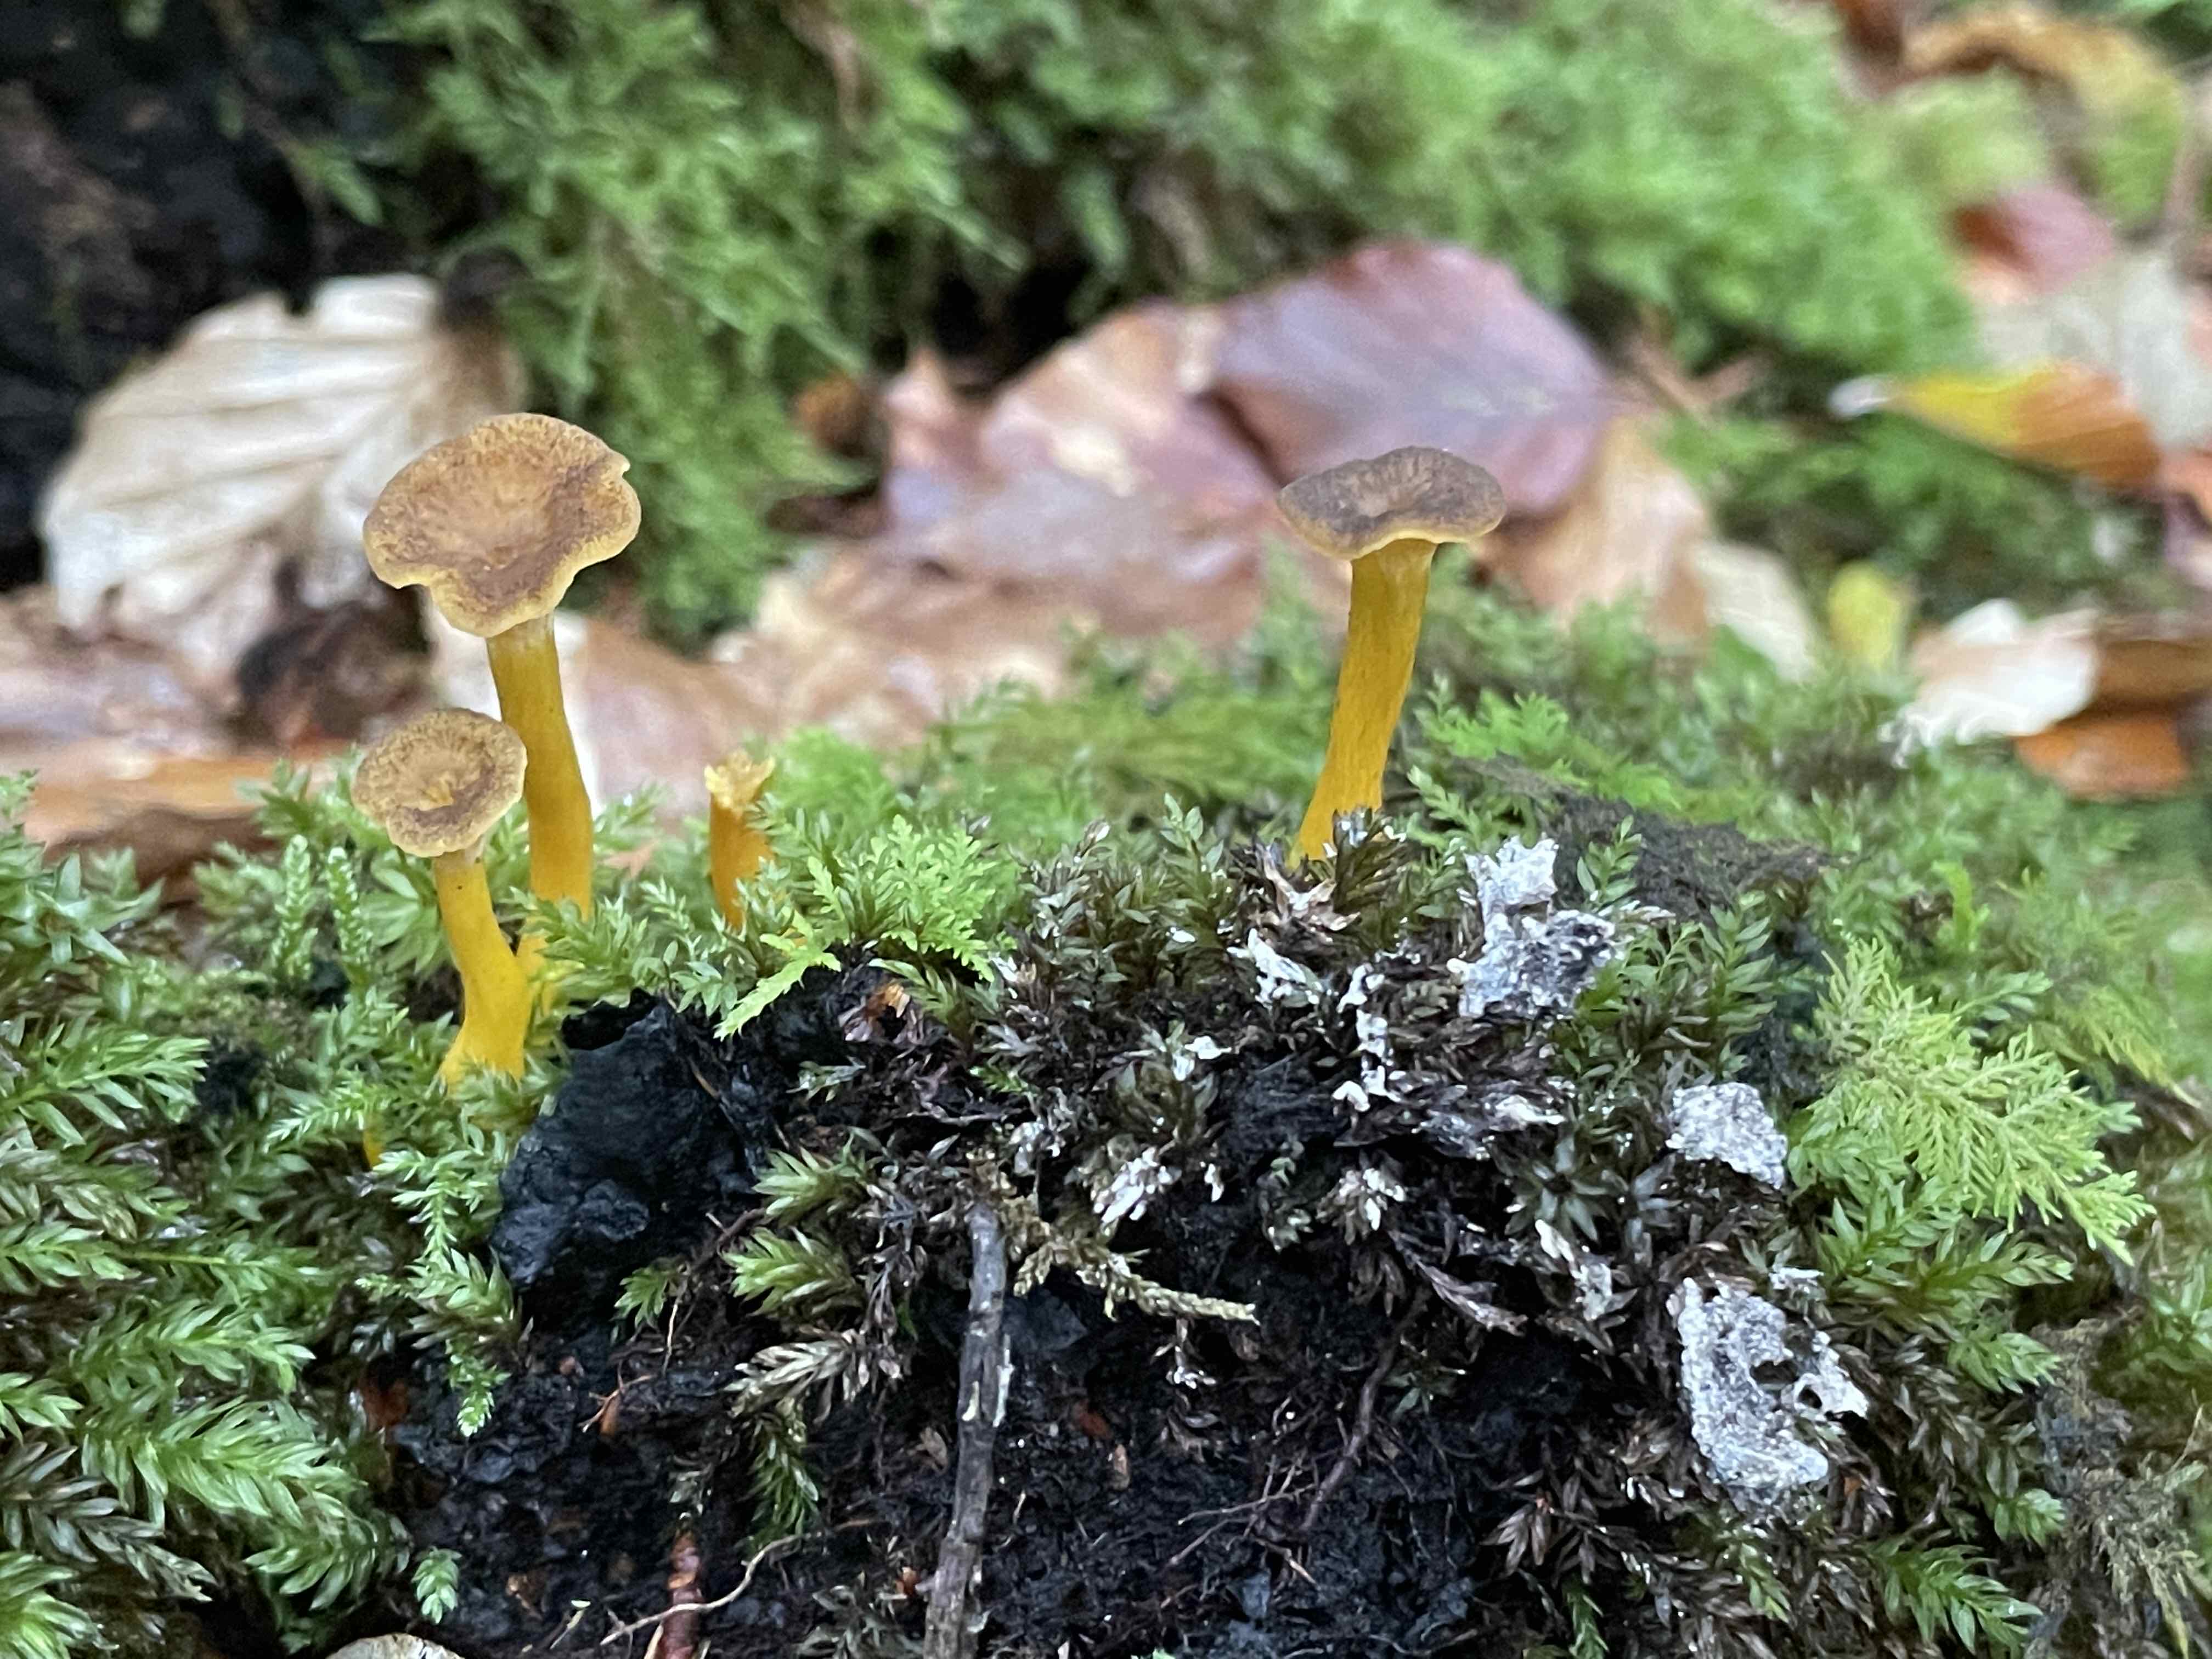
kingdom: Fungi
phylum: Basidiomycota
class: Agaricomycetes
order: Cantharellales
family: Hydnaceae
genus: Craterellus
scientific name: Craterellus tubaeformis
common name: tragt-kantarel
